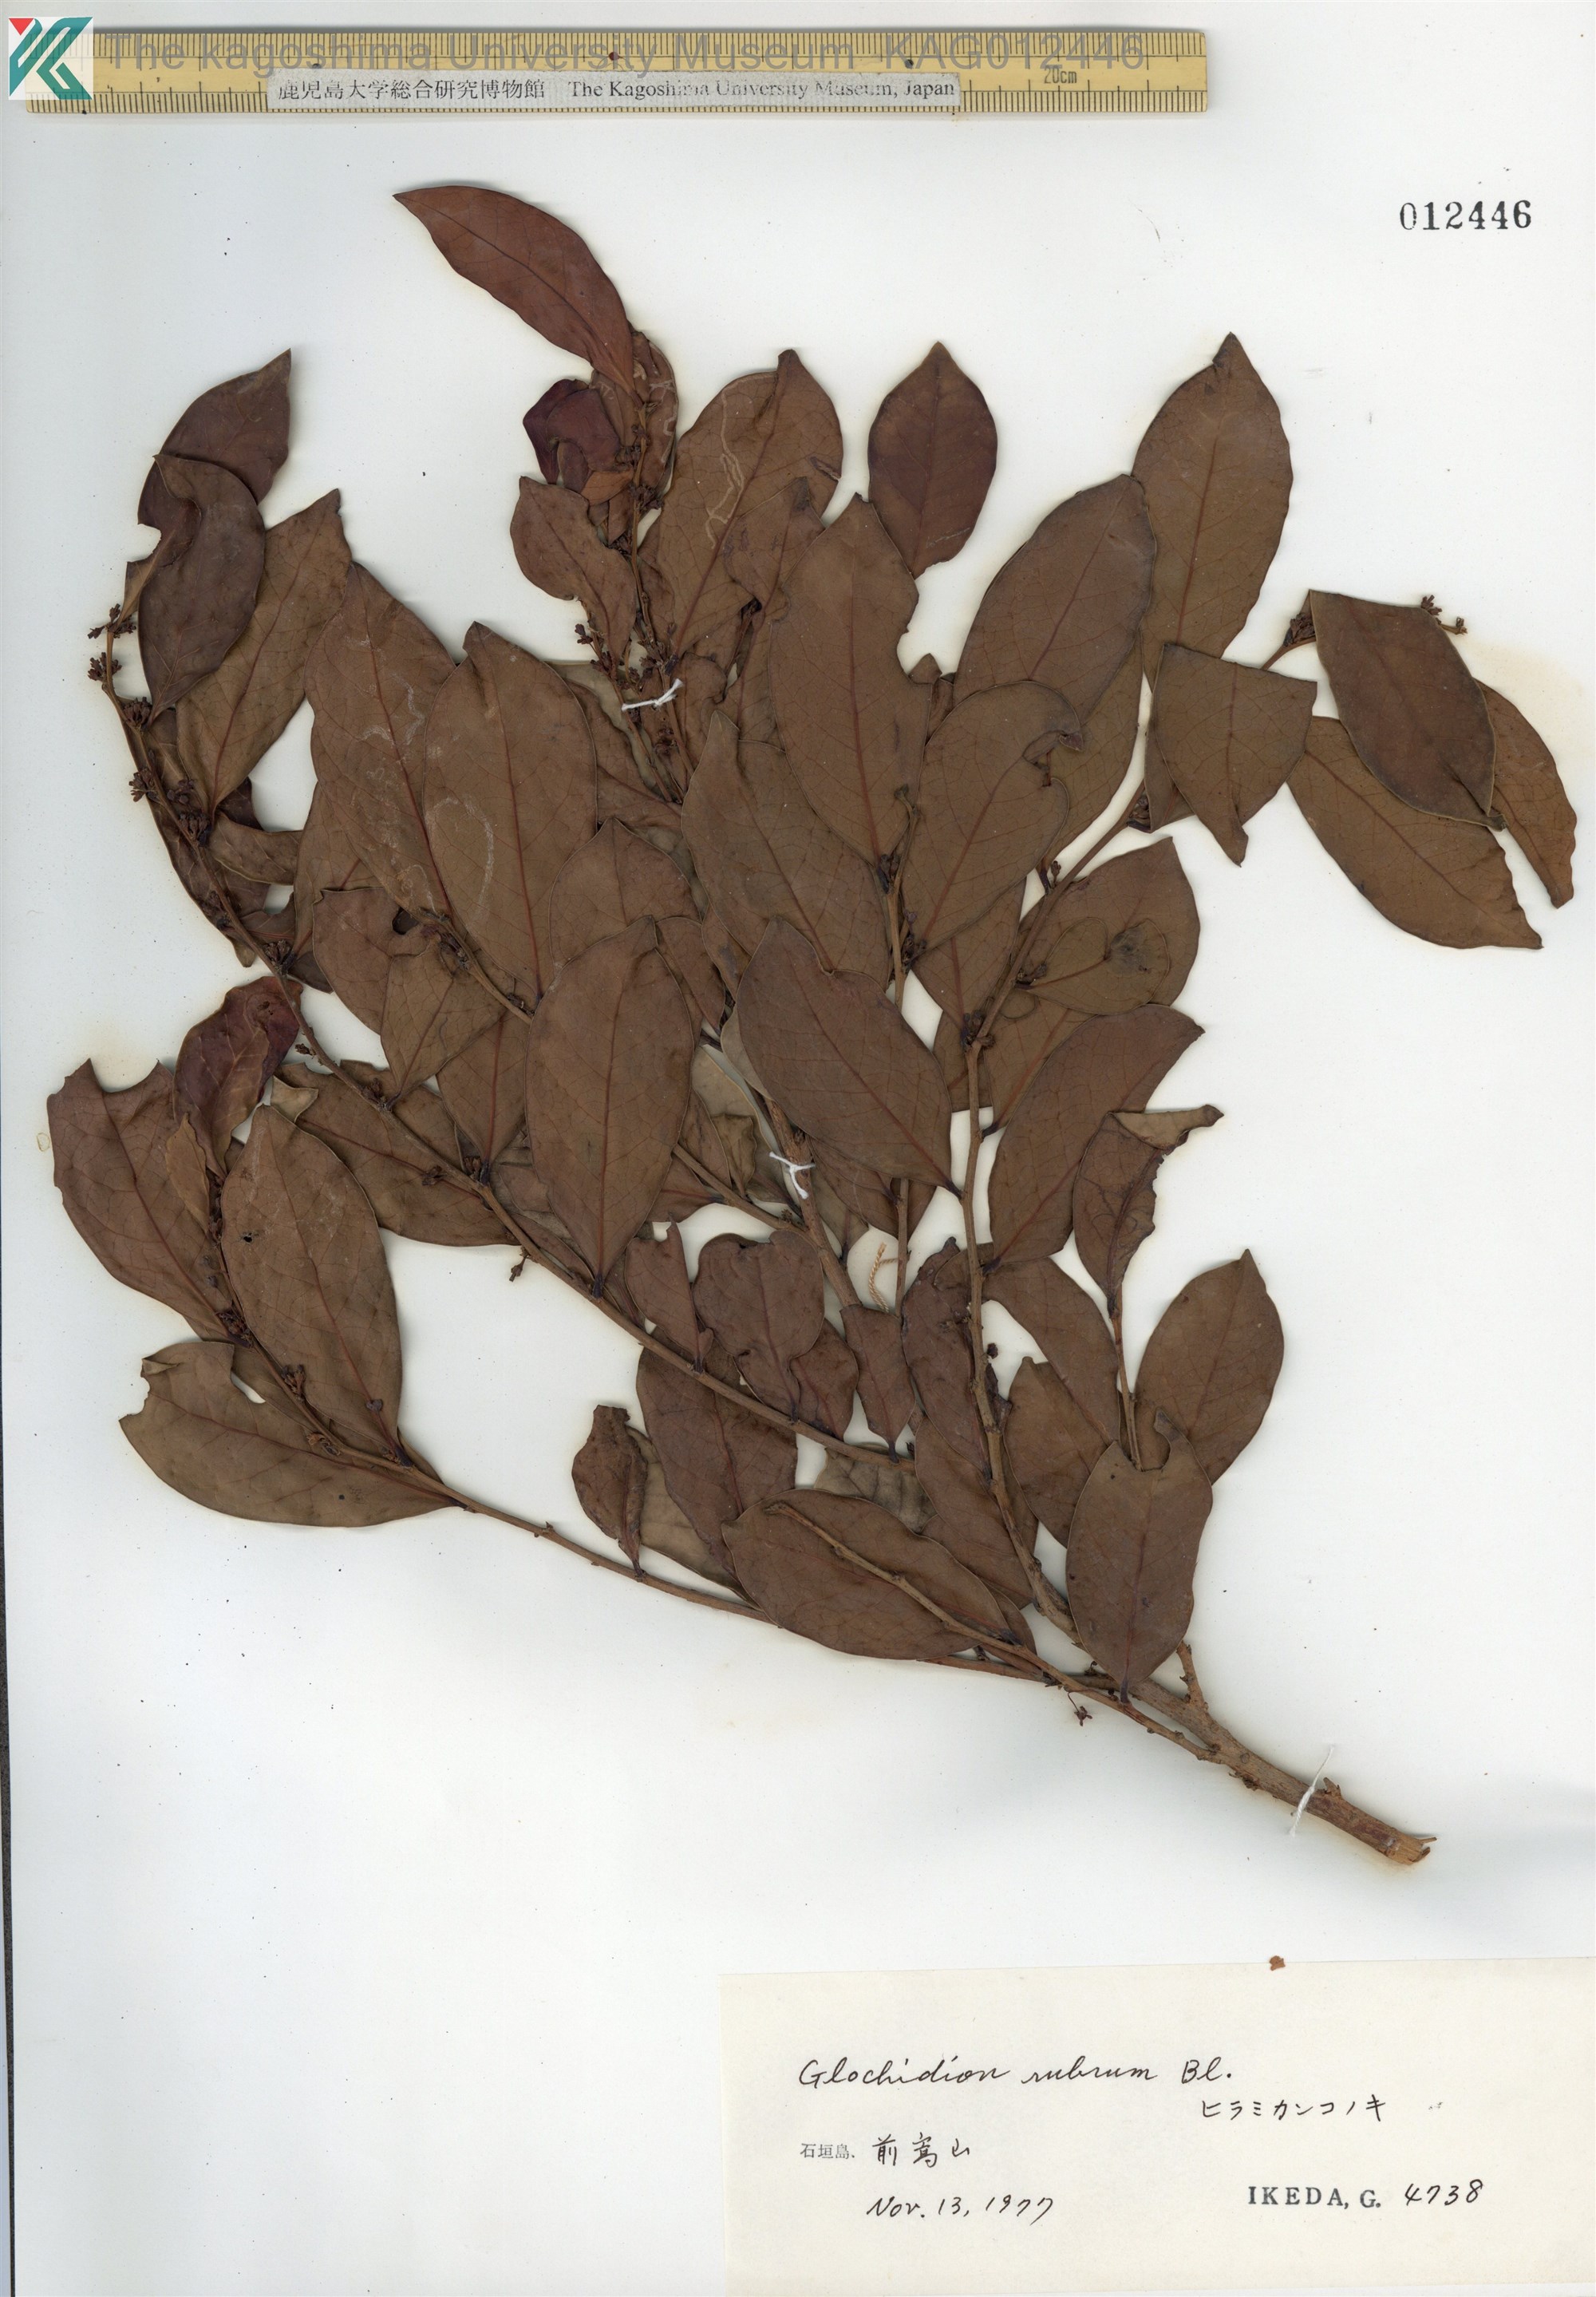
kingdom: Plantae
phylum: Tracheophyta
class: Magnoliopsida
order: Malpighiales
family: Phyllanthaceae
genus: Glochidion
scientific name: Glochidion rubrum
